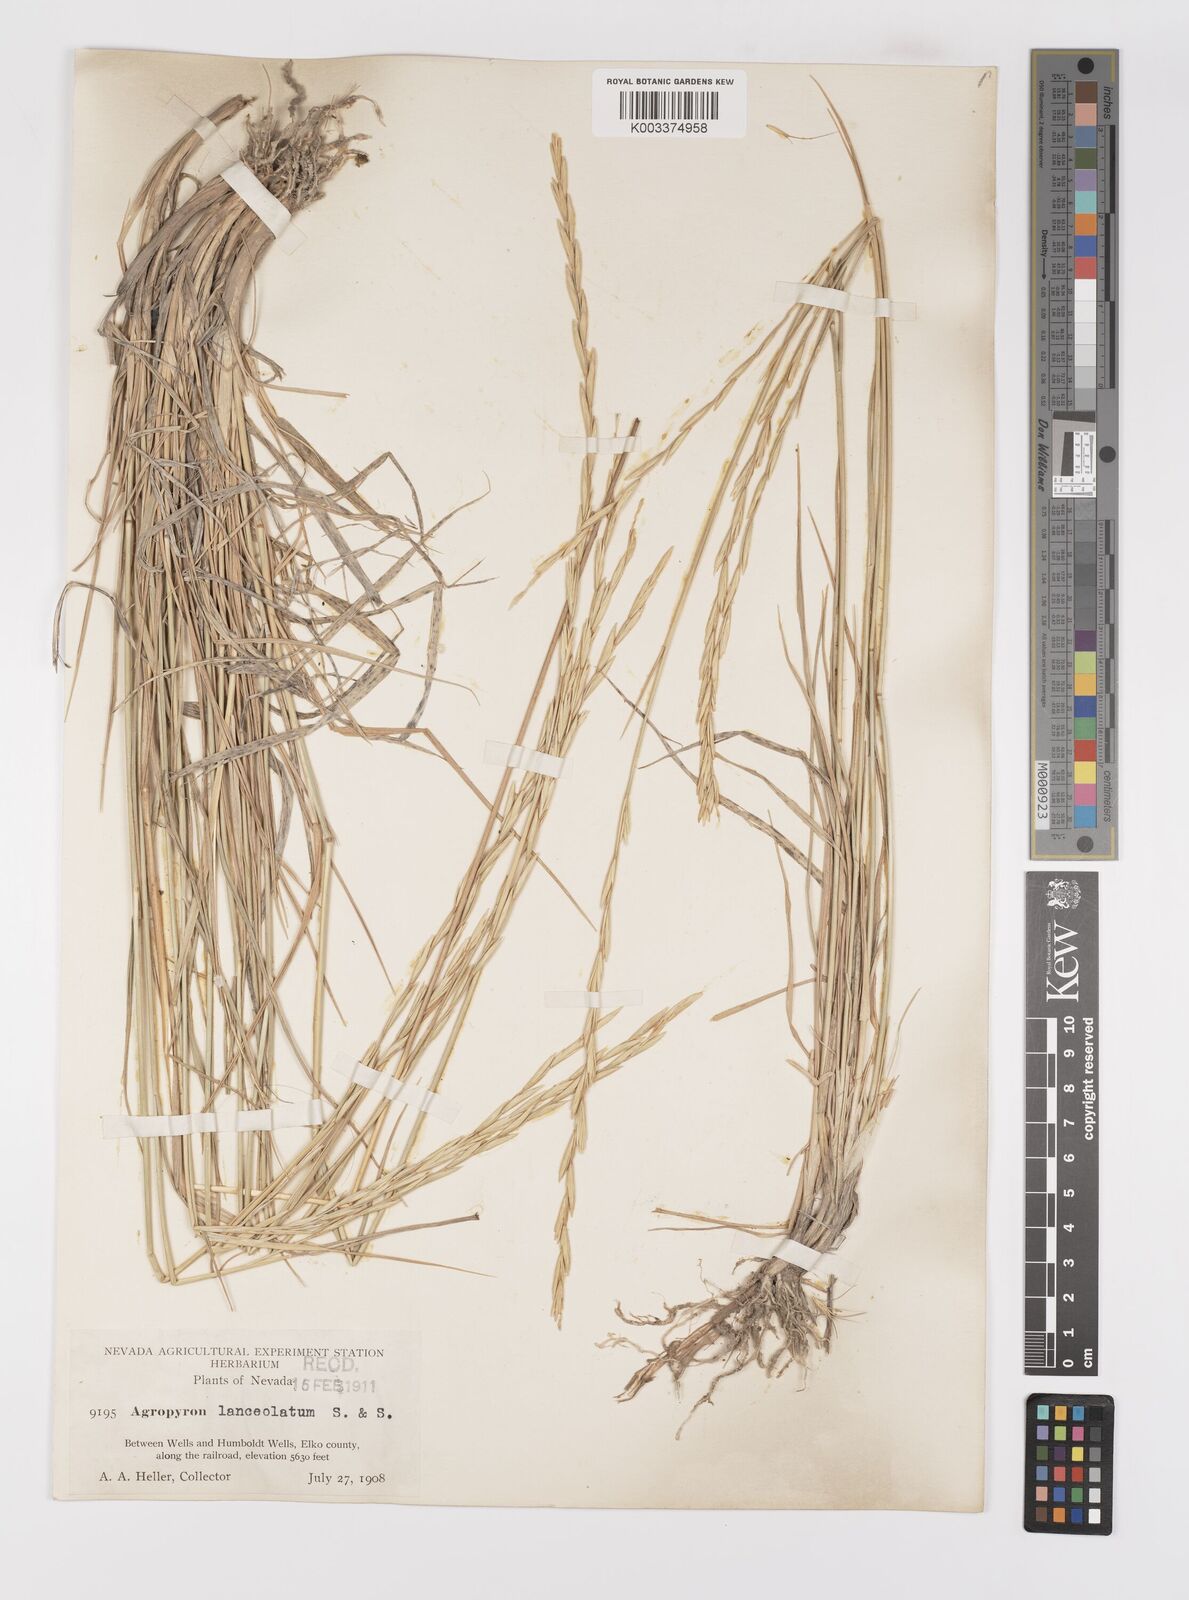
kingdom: Plantae
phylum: Tracheophyta
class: Liliopsida
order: Poales
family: Poaceae
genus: Elymus
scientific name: Elymus lanceolatus
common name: Thick-spike wheatgrass
